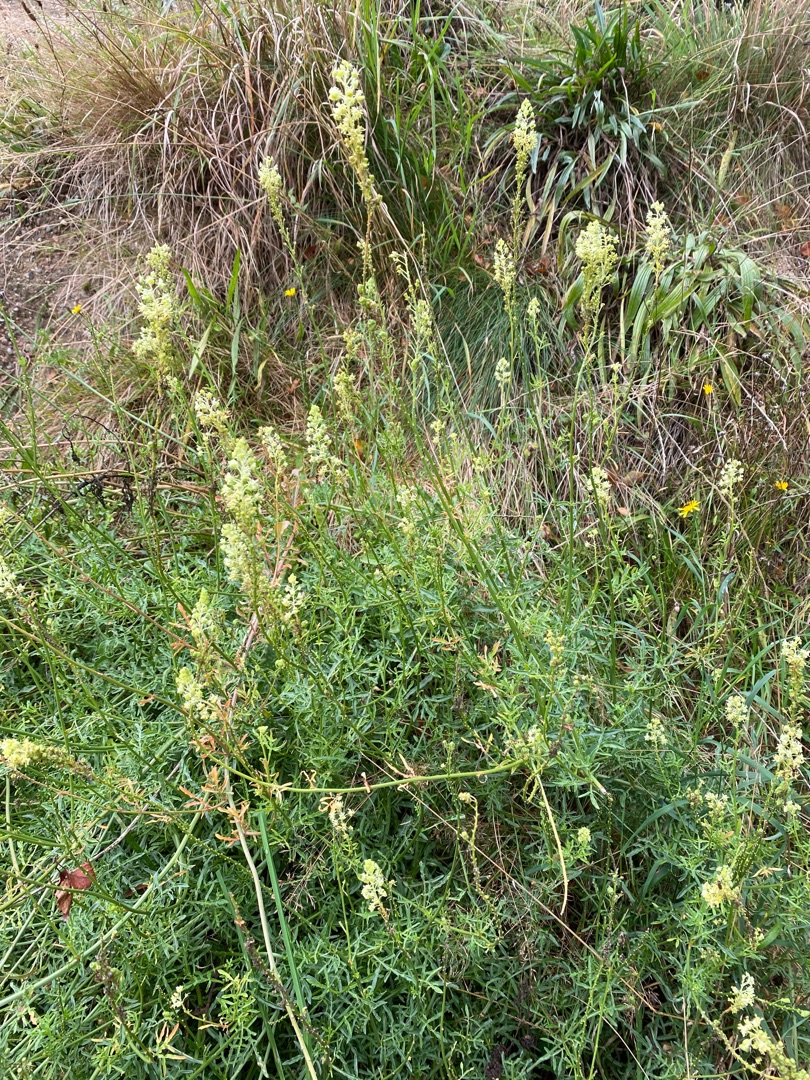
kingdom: Plantae
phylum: Tracheophyta
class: Magnoliopsida
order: Brassicales
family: Resedaceae
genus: Reseda
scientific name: Reseda lutea
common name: Gul reseda
